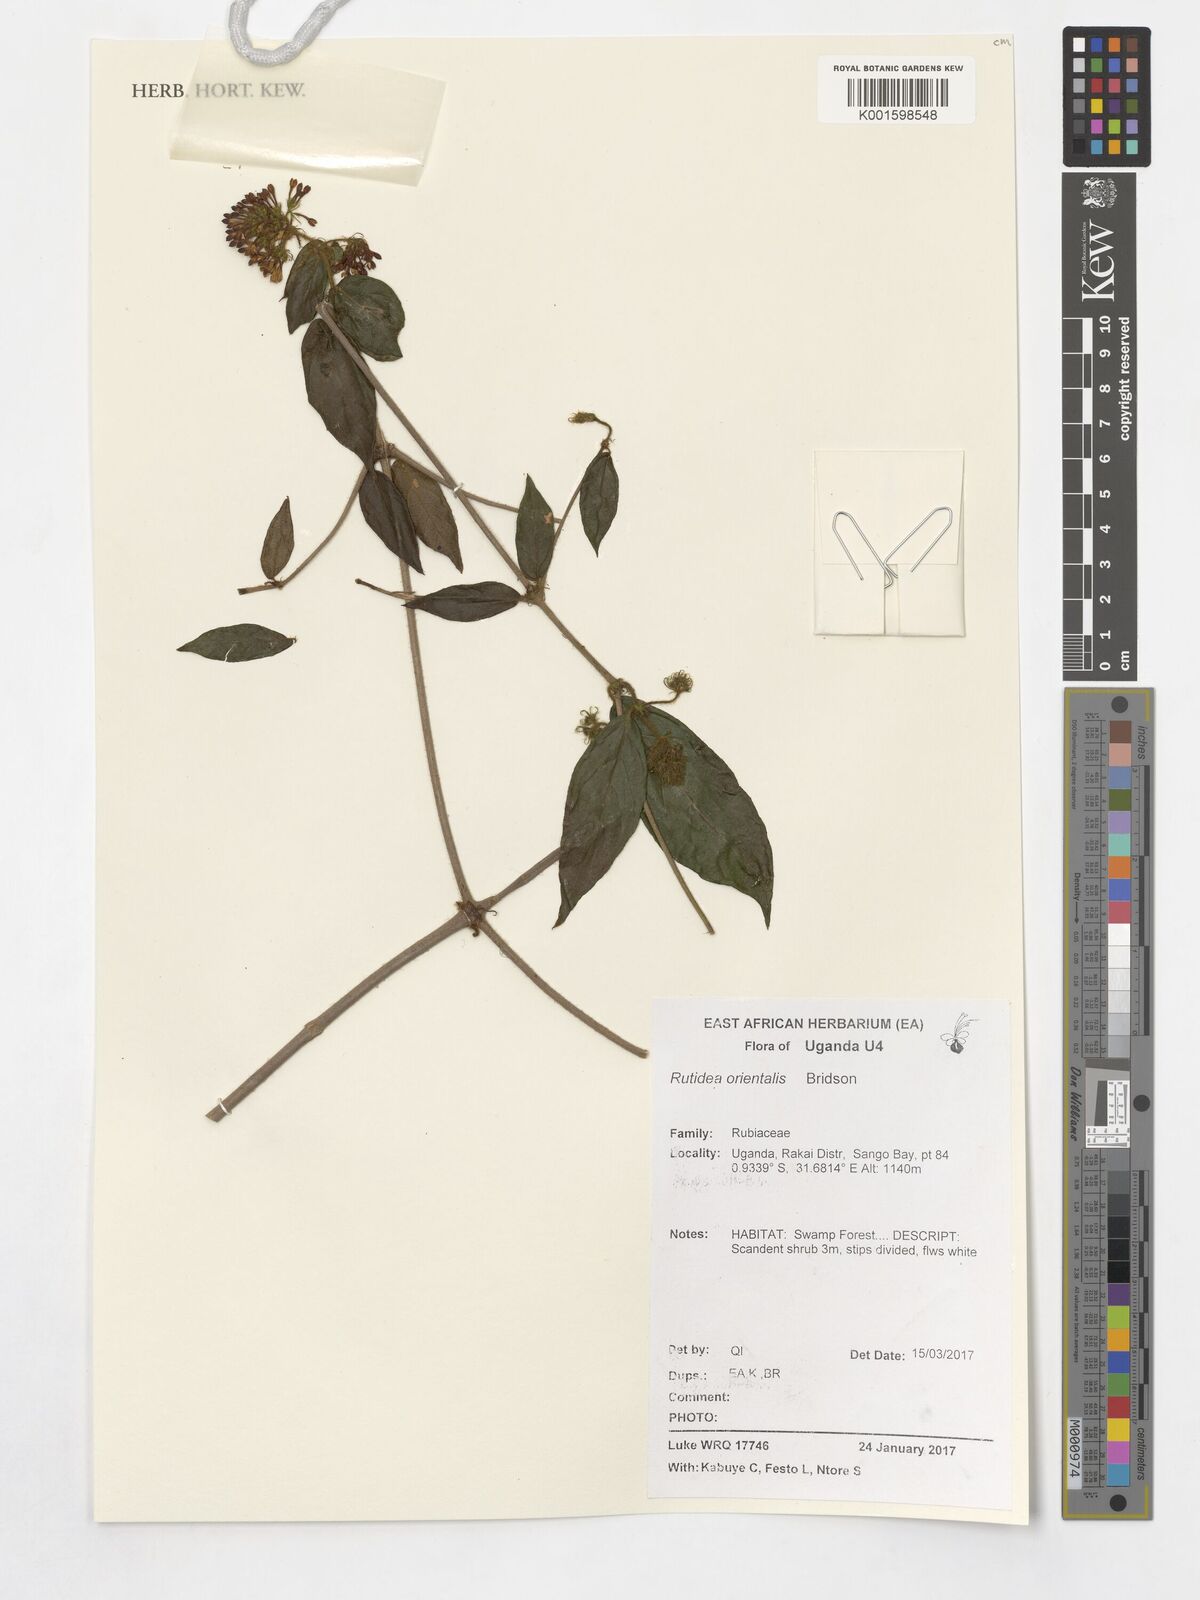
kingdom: Plantae
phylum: Tracheophyta
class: Magnoliopsida
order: Gentianales
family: Rubiaceae
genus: Rutidea
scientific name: Rutidea orientalis
